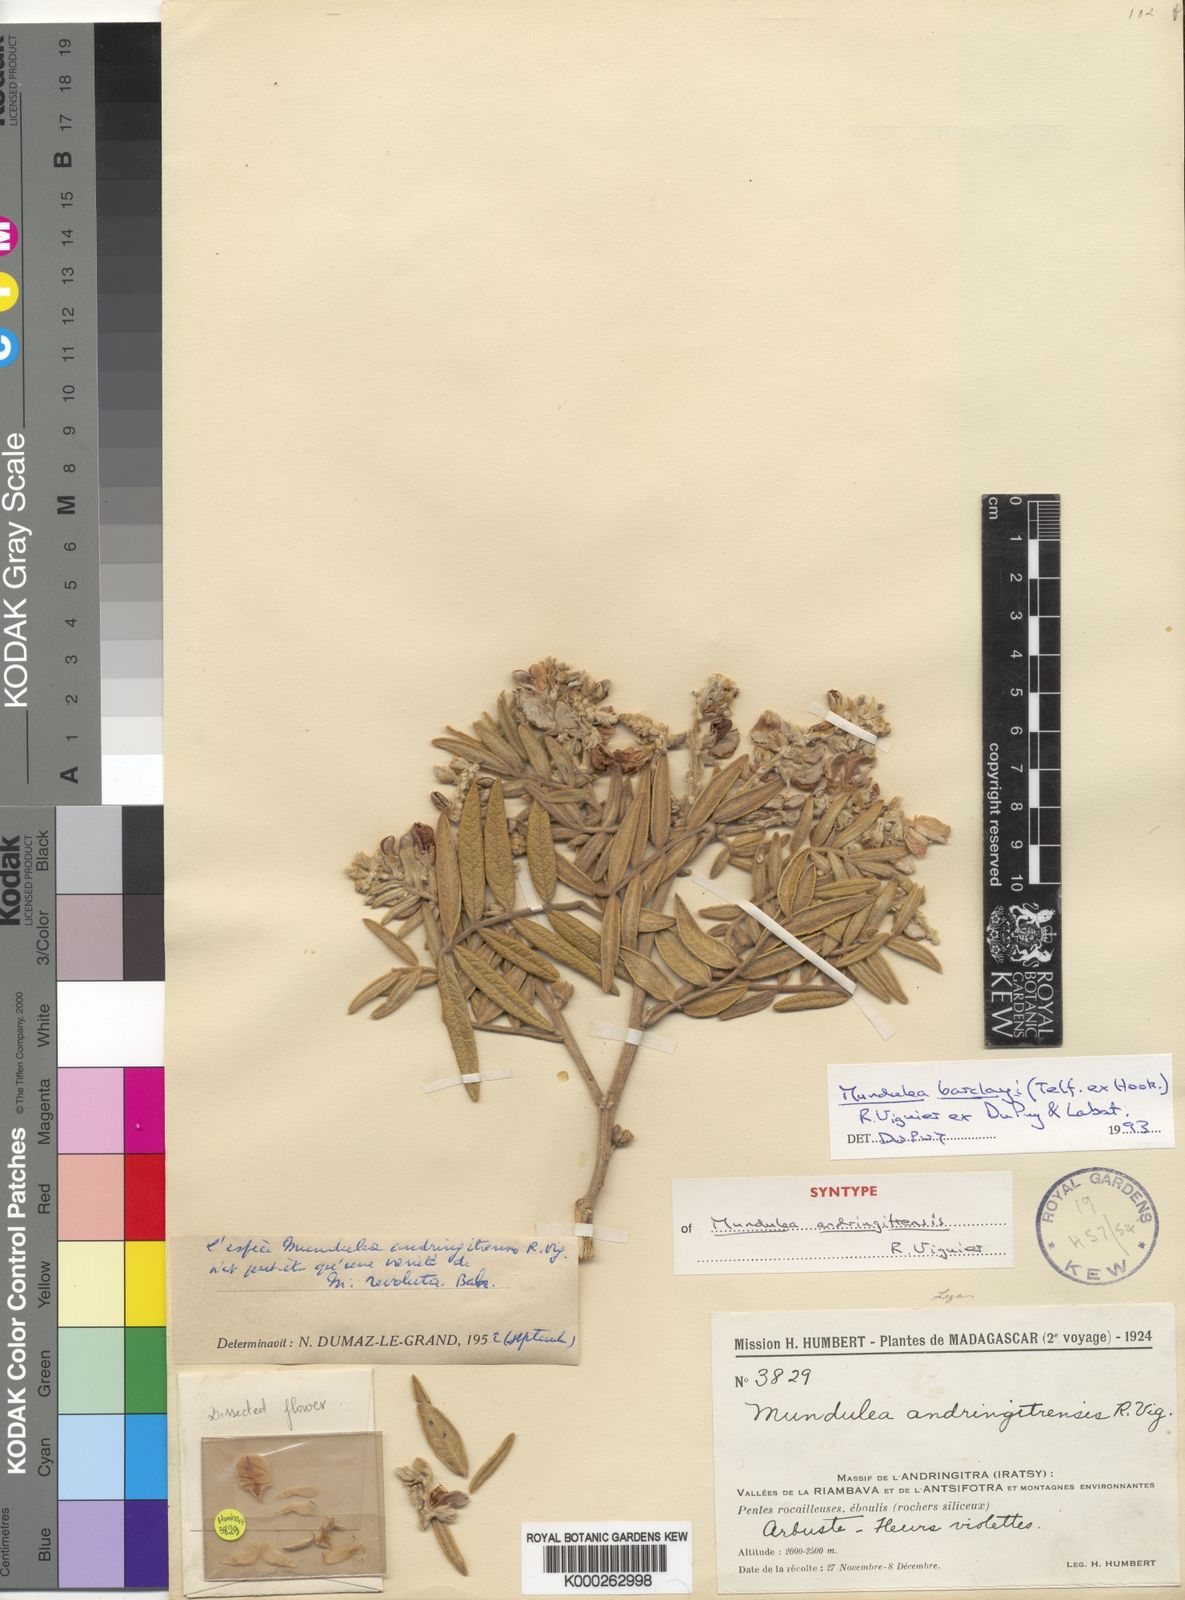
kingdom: Plantae
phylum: Tracheophyta
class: Magnoliopsida
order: Fabales
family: Fabaceae
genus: Mundulea
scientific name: Mundulea barclayi
